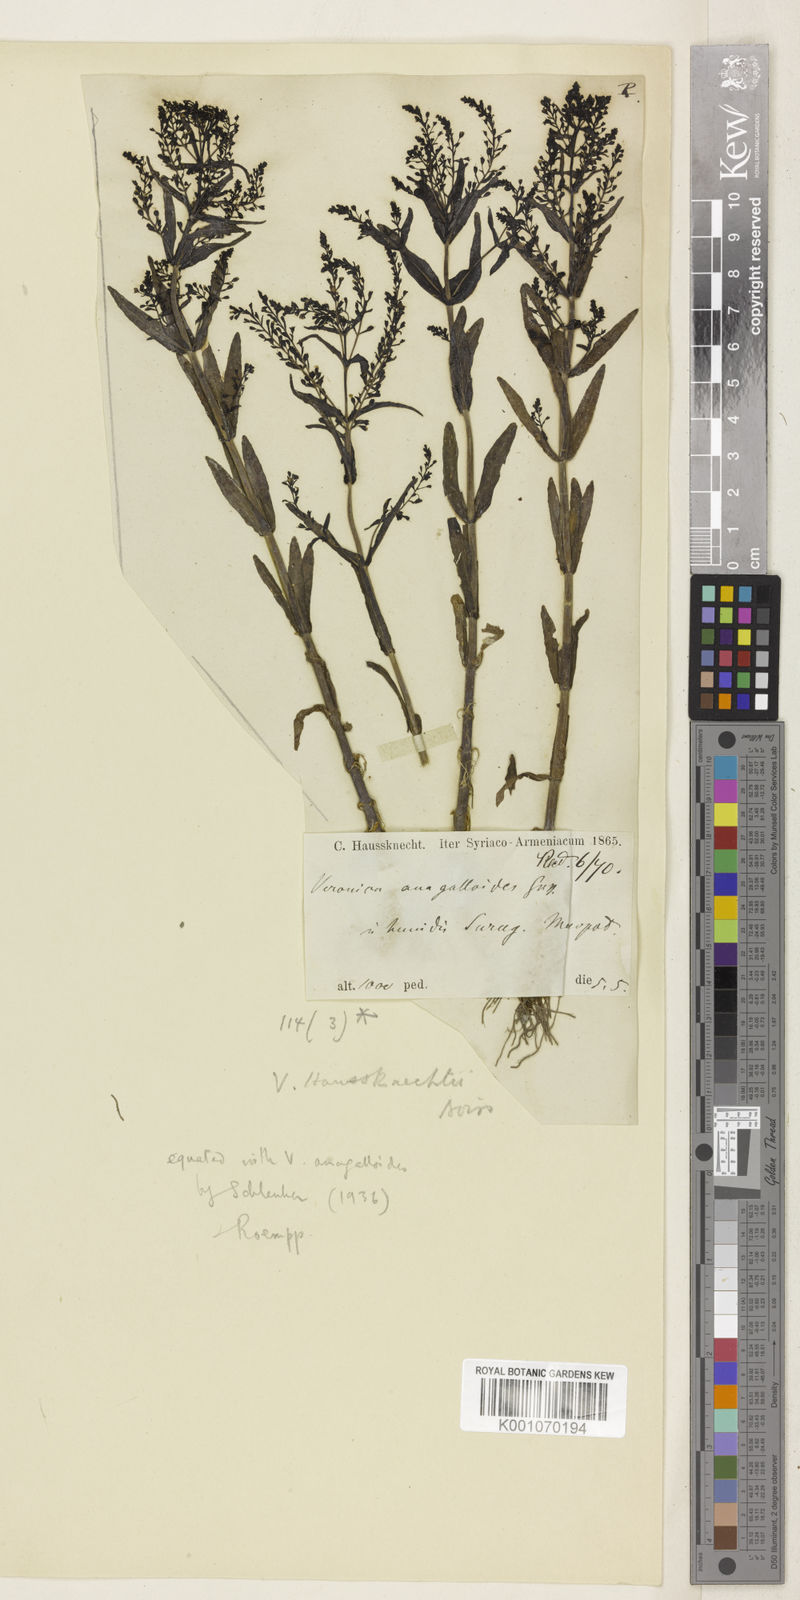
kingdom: Plantae
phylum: Tracheophyta
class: Magnoliopsida
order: Lamiales
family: Plantaginaceae
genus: Veronica
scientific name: Veronica anagalloides
